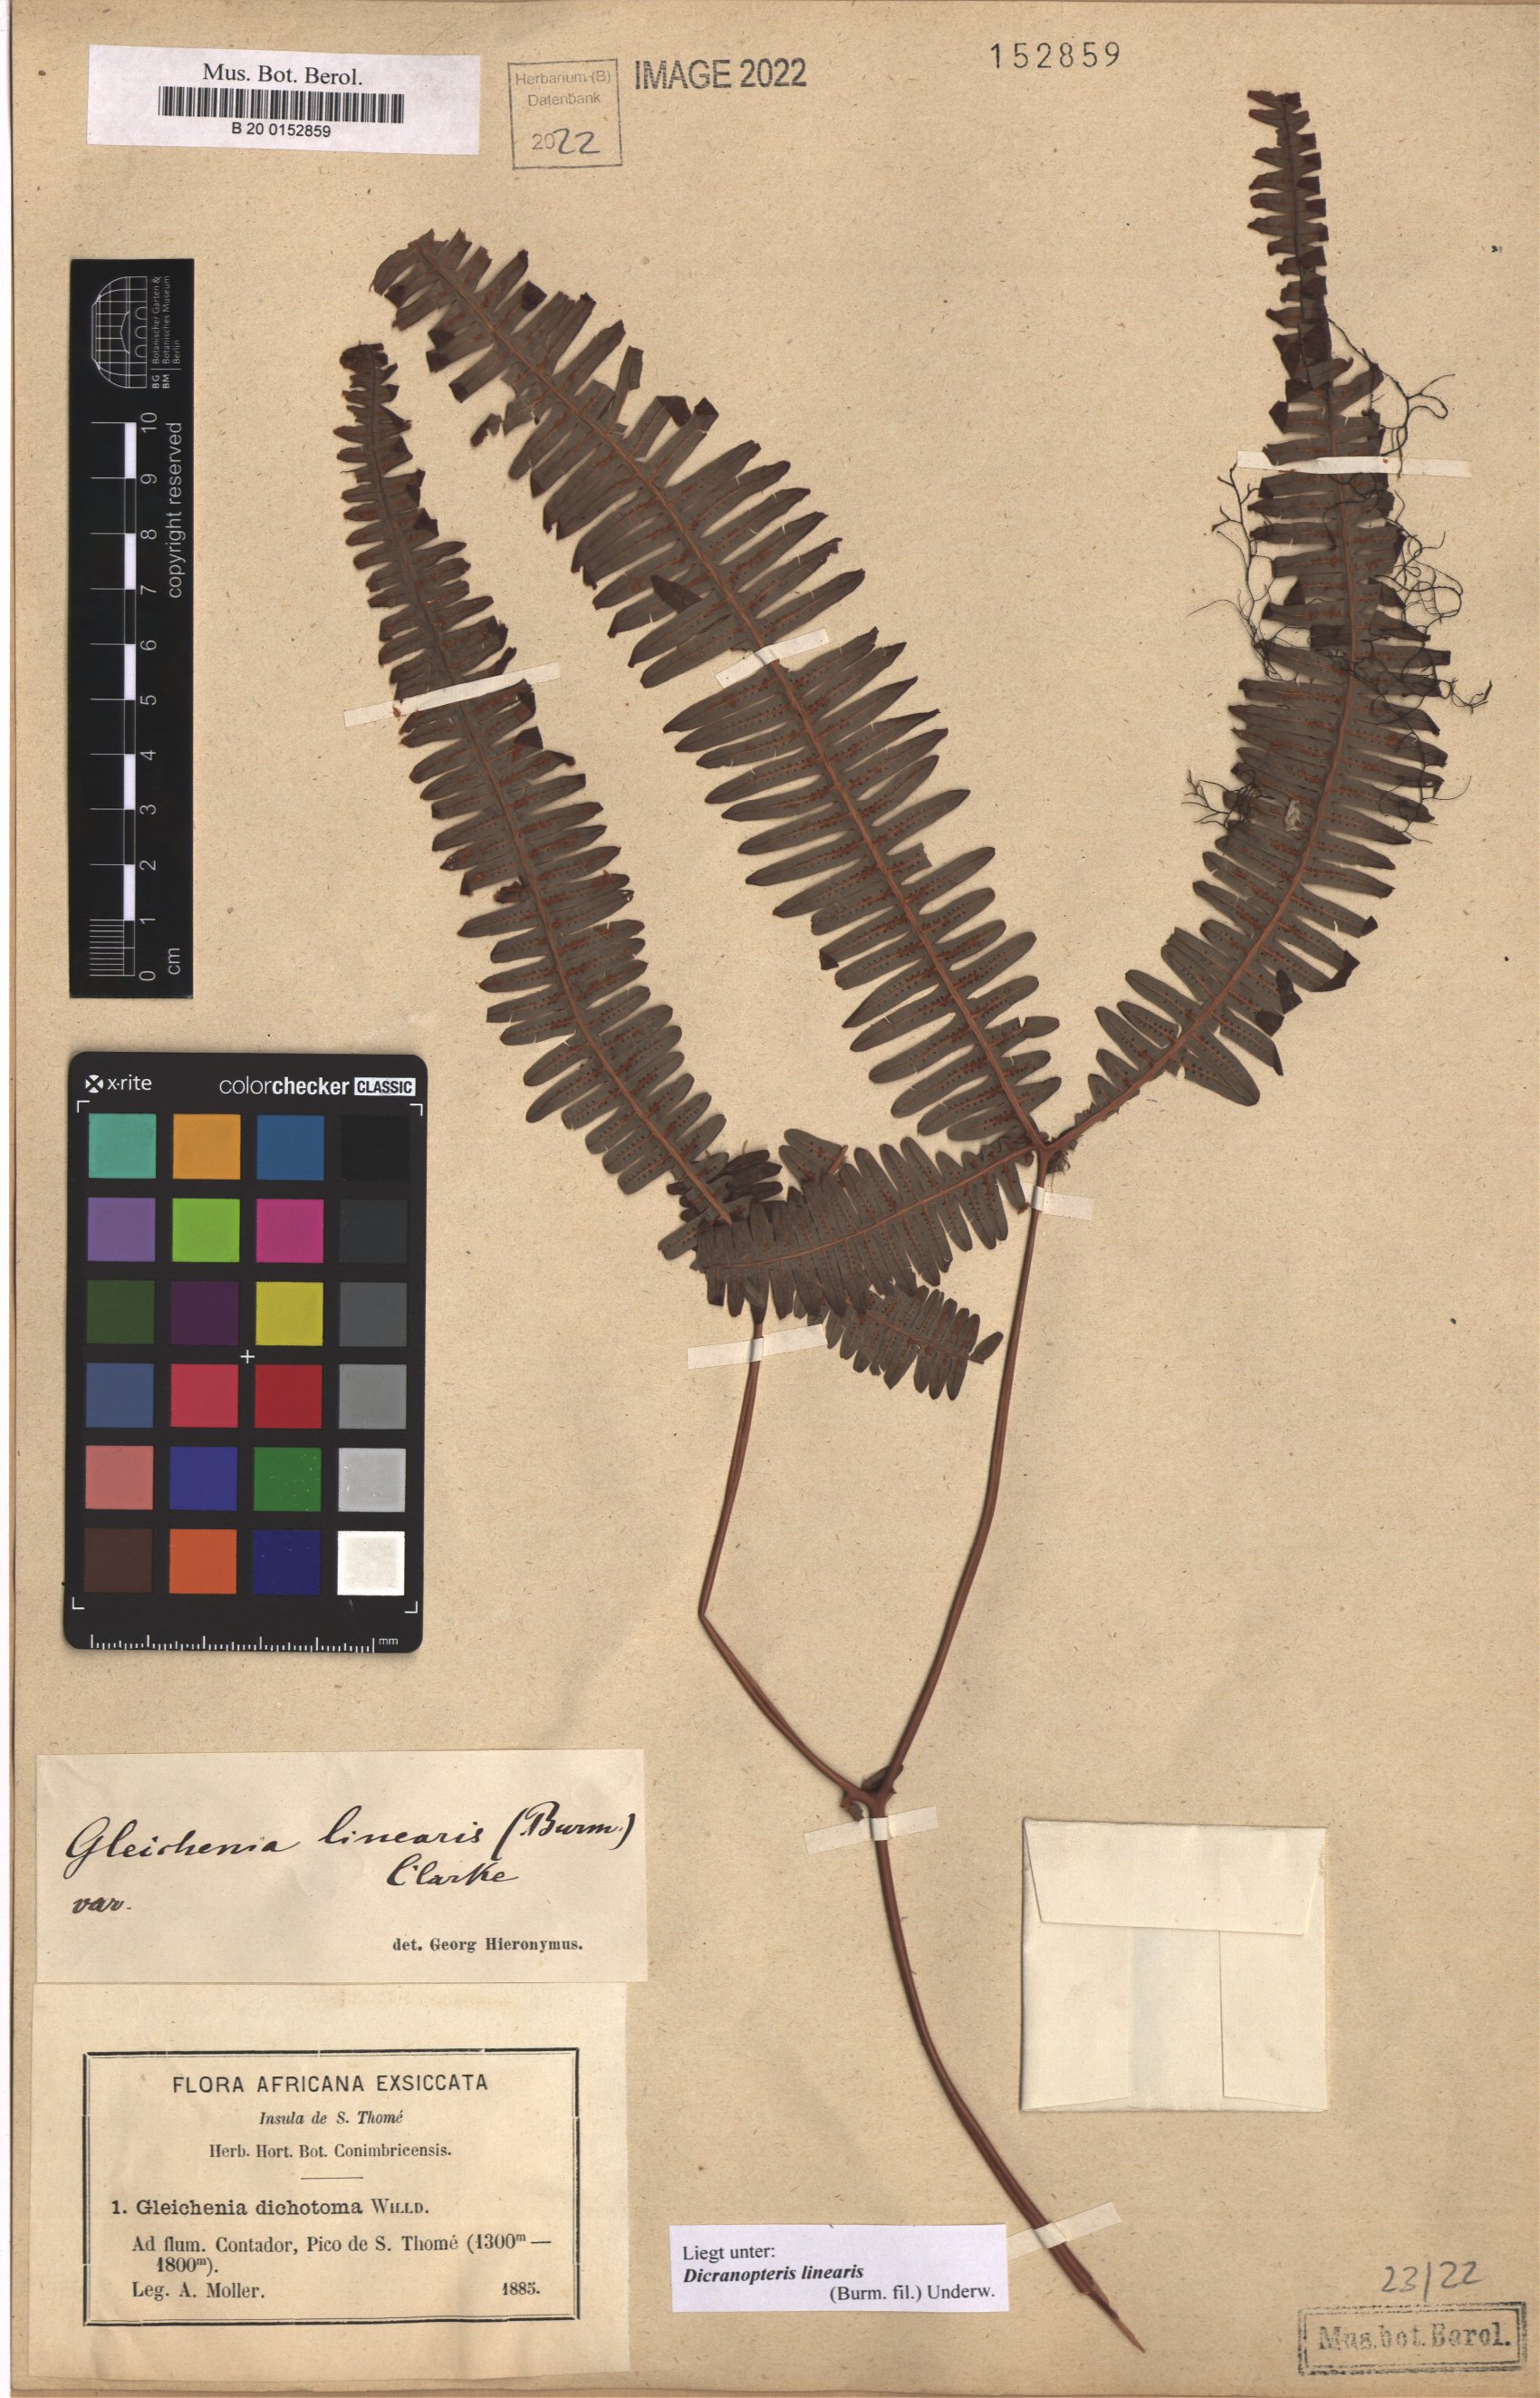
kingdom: Plantae
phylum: Tracheophyta
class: Polypodiopsida
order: Gleicheniales
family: Gleicheniaceae
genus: Dicranopteris
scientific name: Dicranopteris linearis
